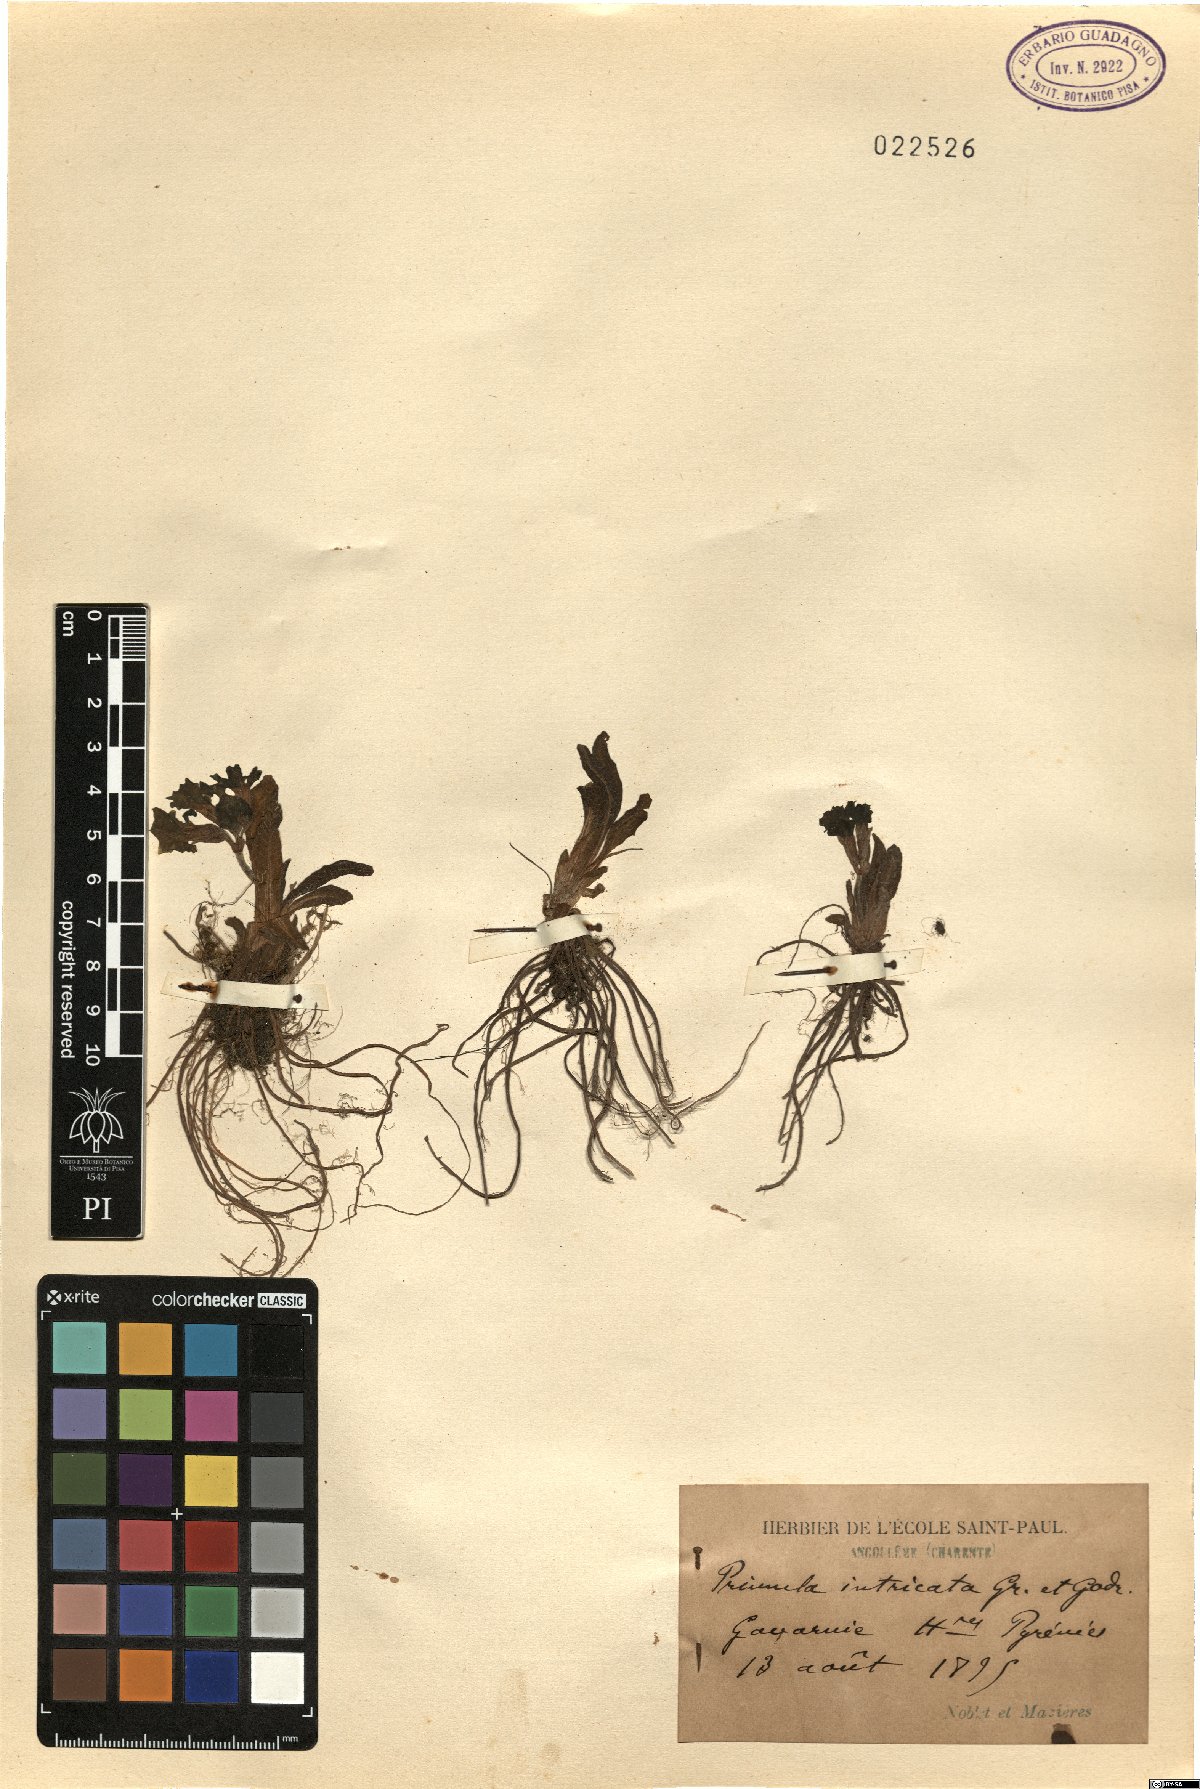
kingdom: Plantae
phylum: Tracheophyta
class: Magnoliopsida
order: Ericales
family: Primulaceae
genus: Primula
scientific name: Primula intricata
